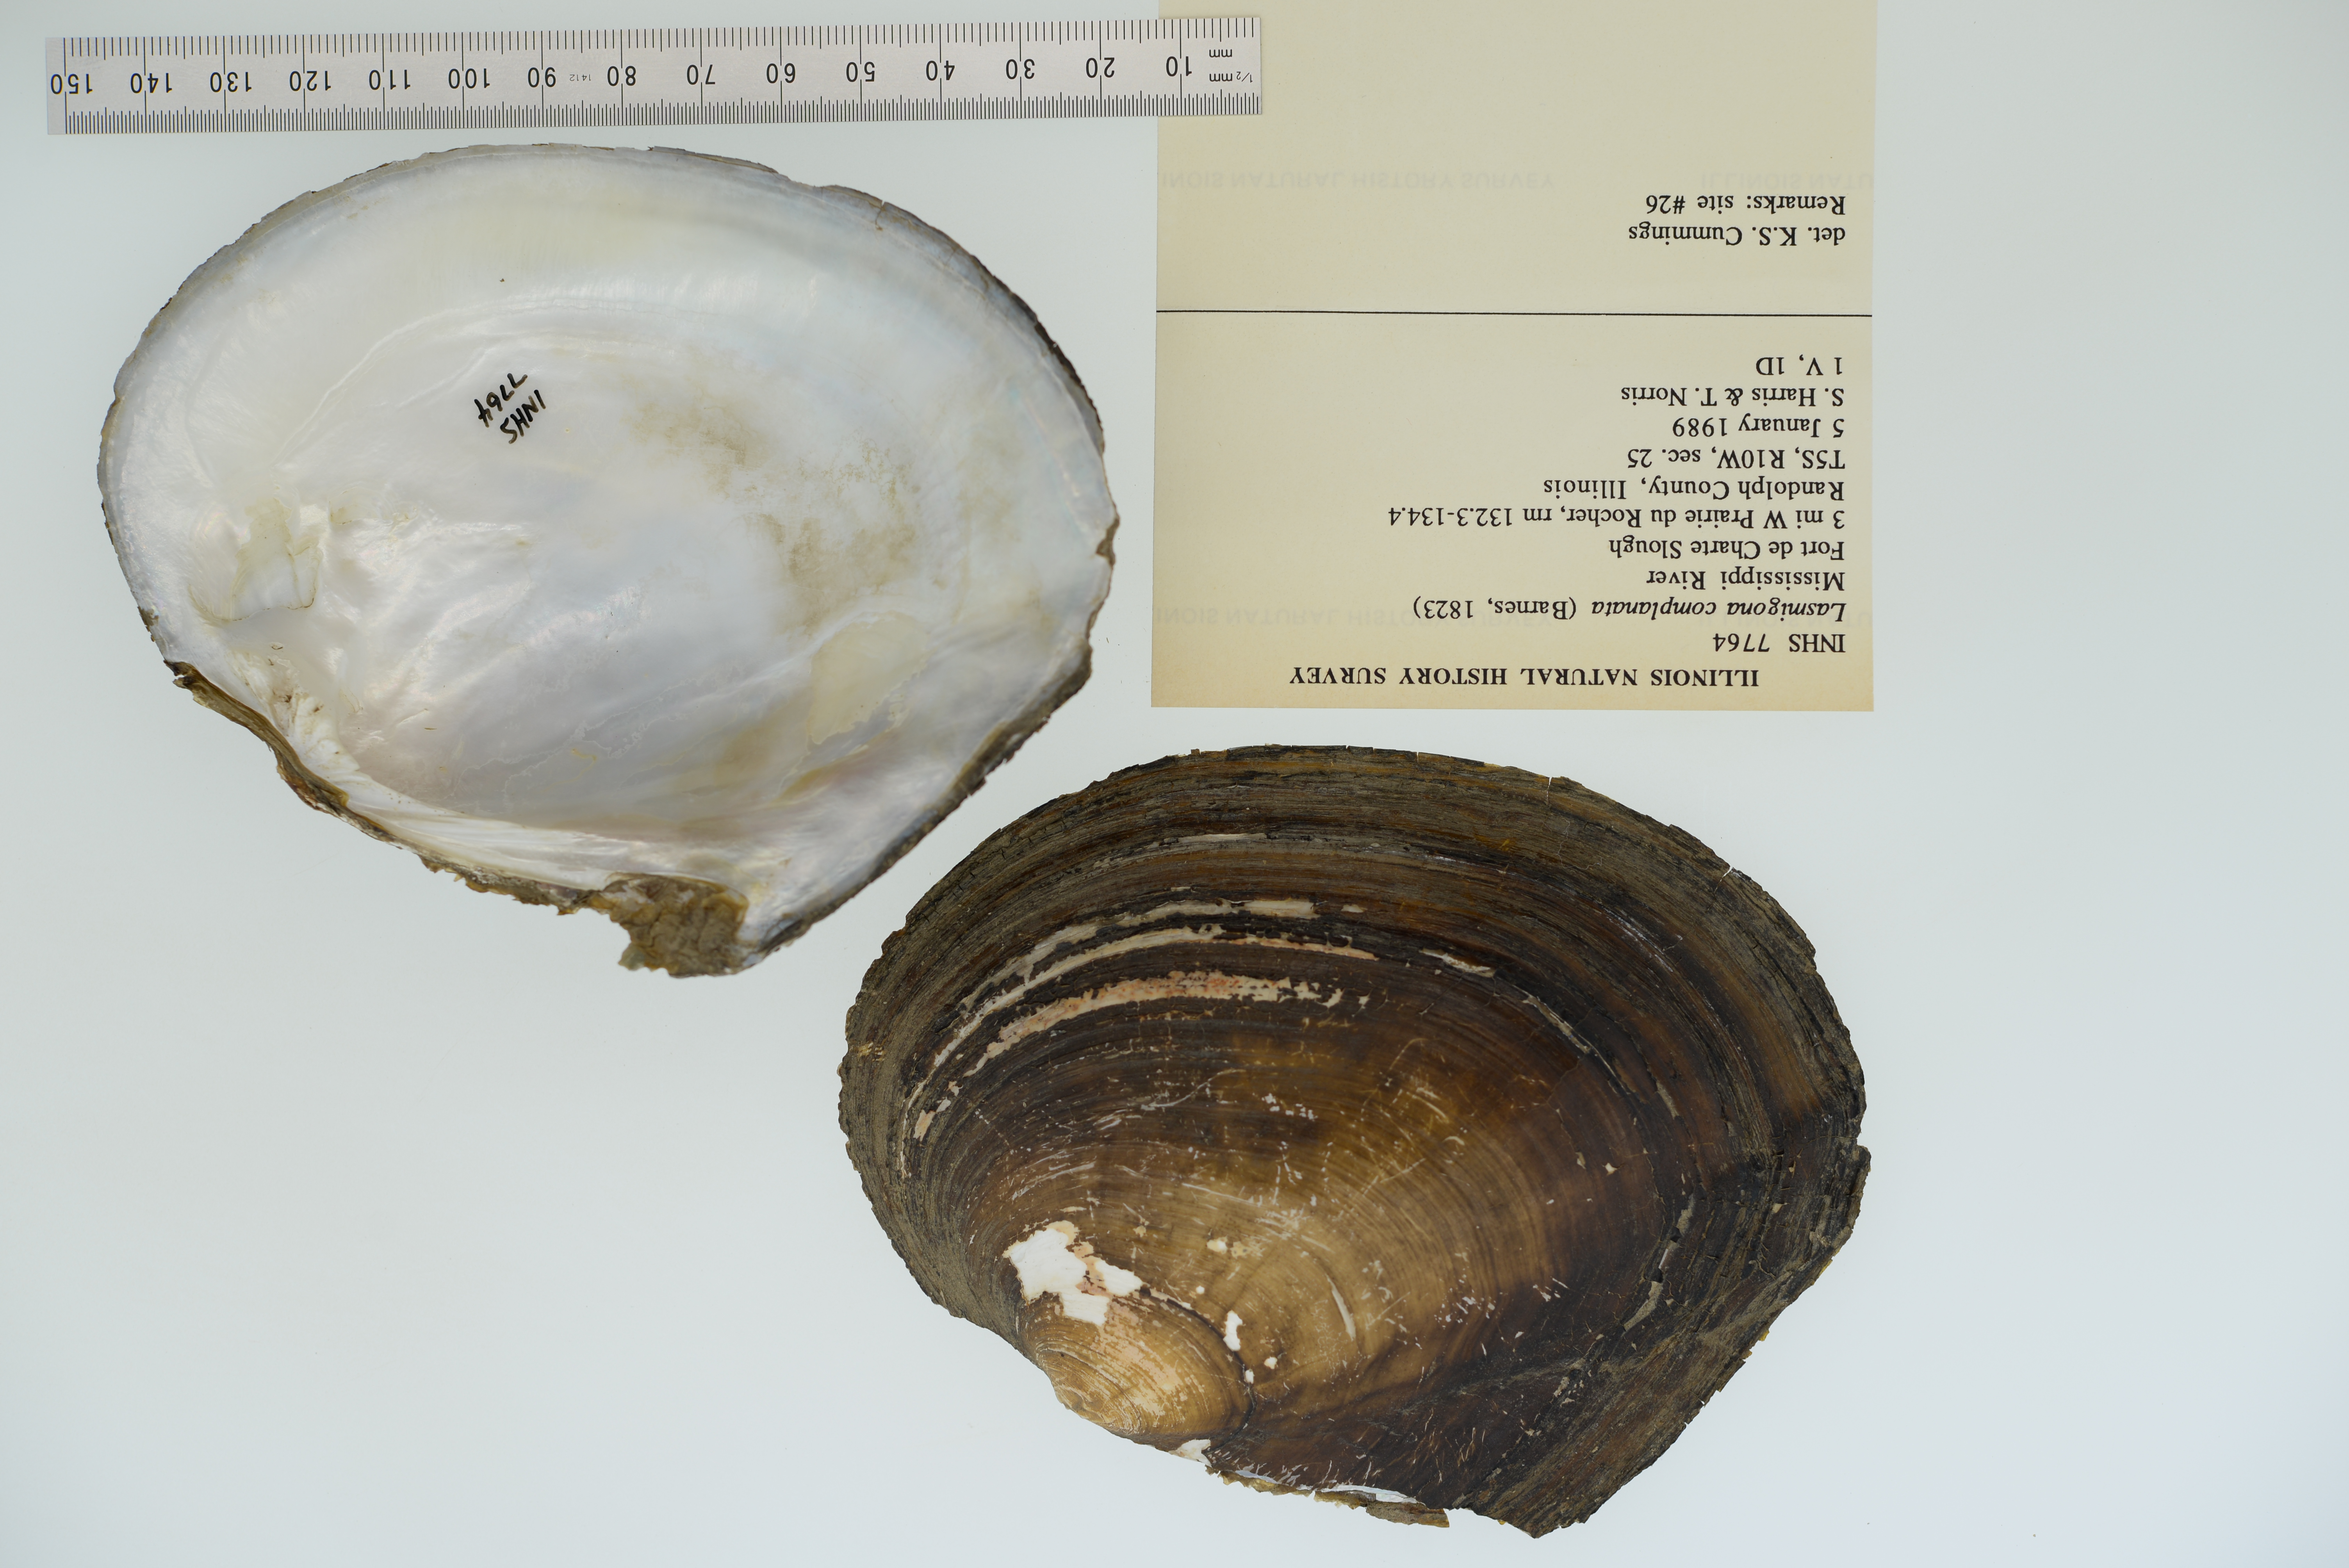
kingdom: Animalia
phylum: Mollusca
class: Bivalvia
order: Unionida
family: Unionidae
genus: Lasmigona
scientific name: Lasmigona complanata
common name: White heelsplitter
